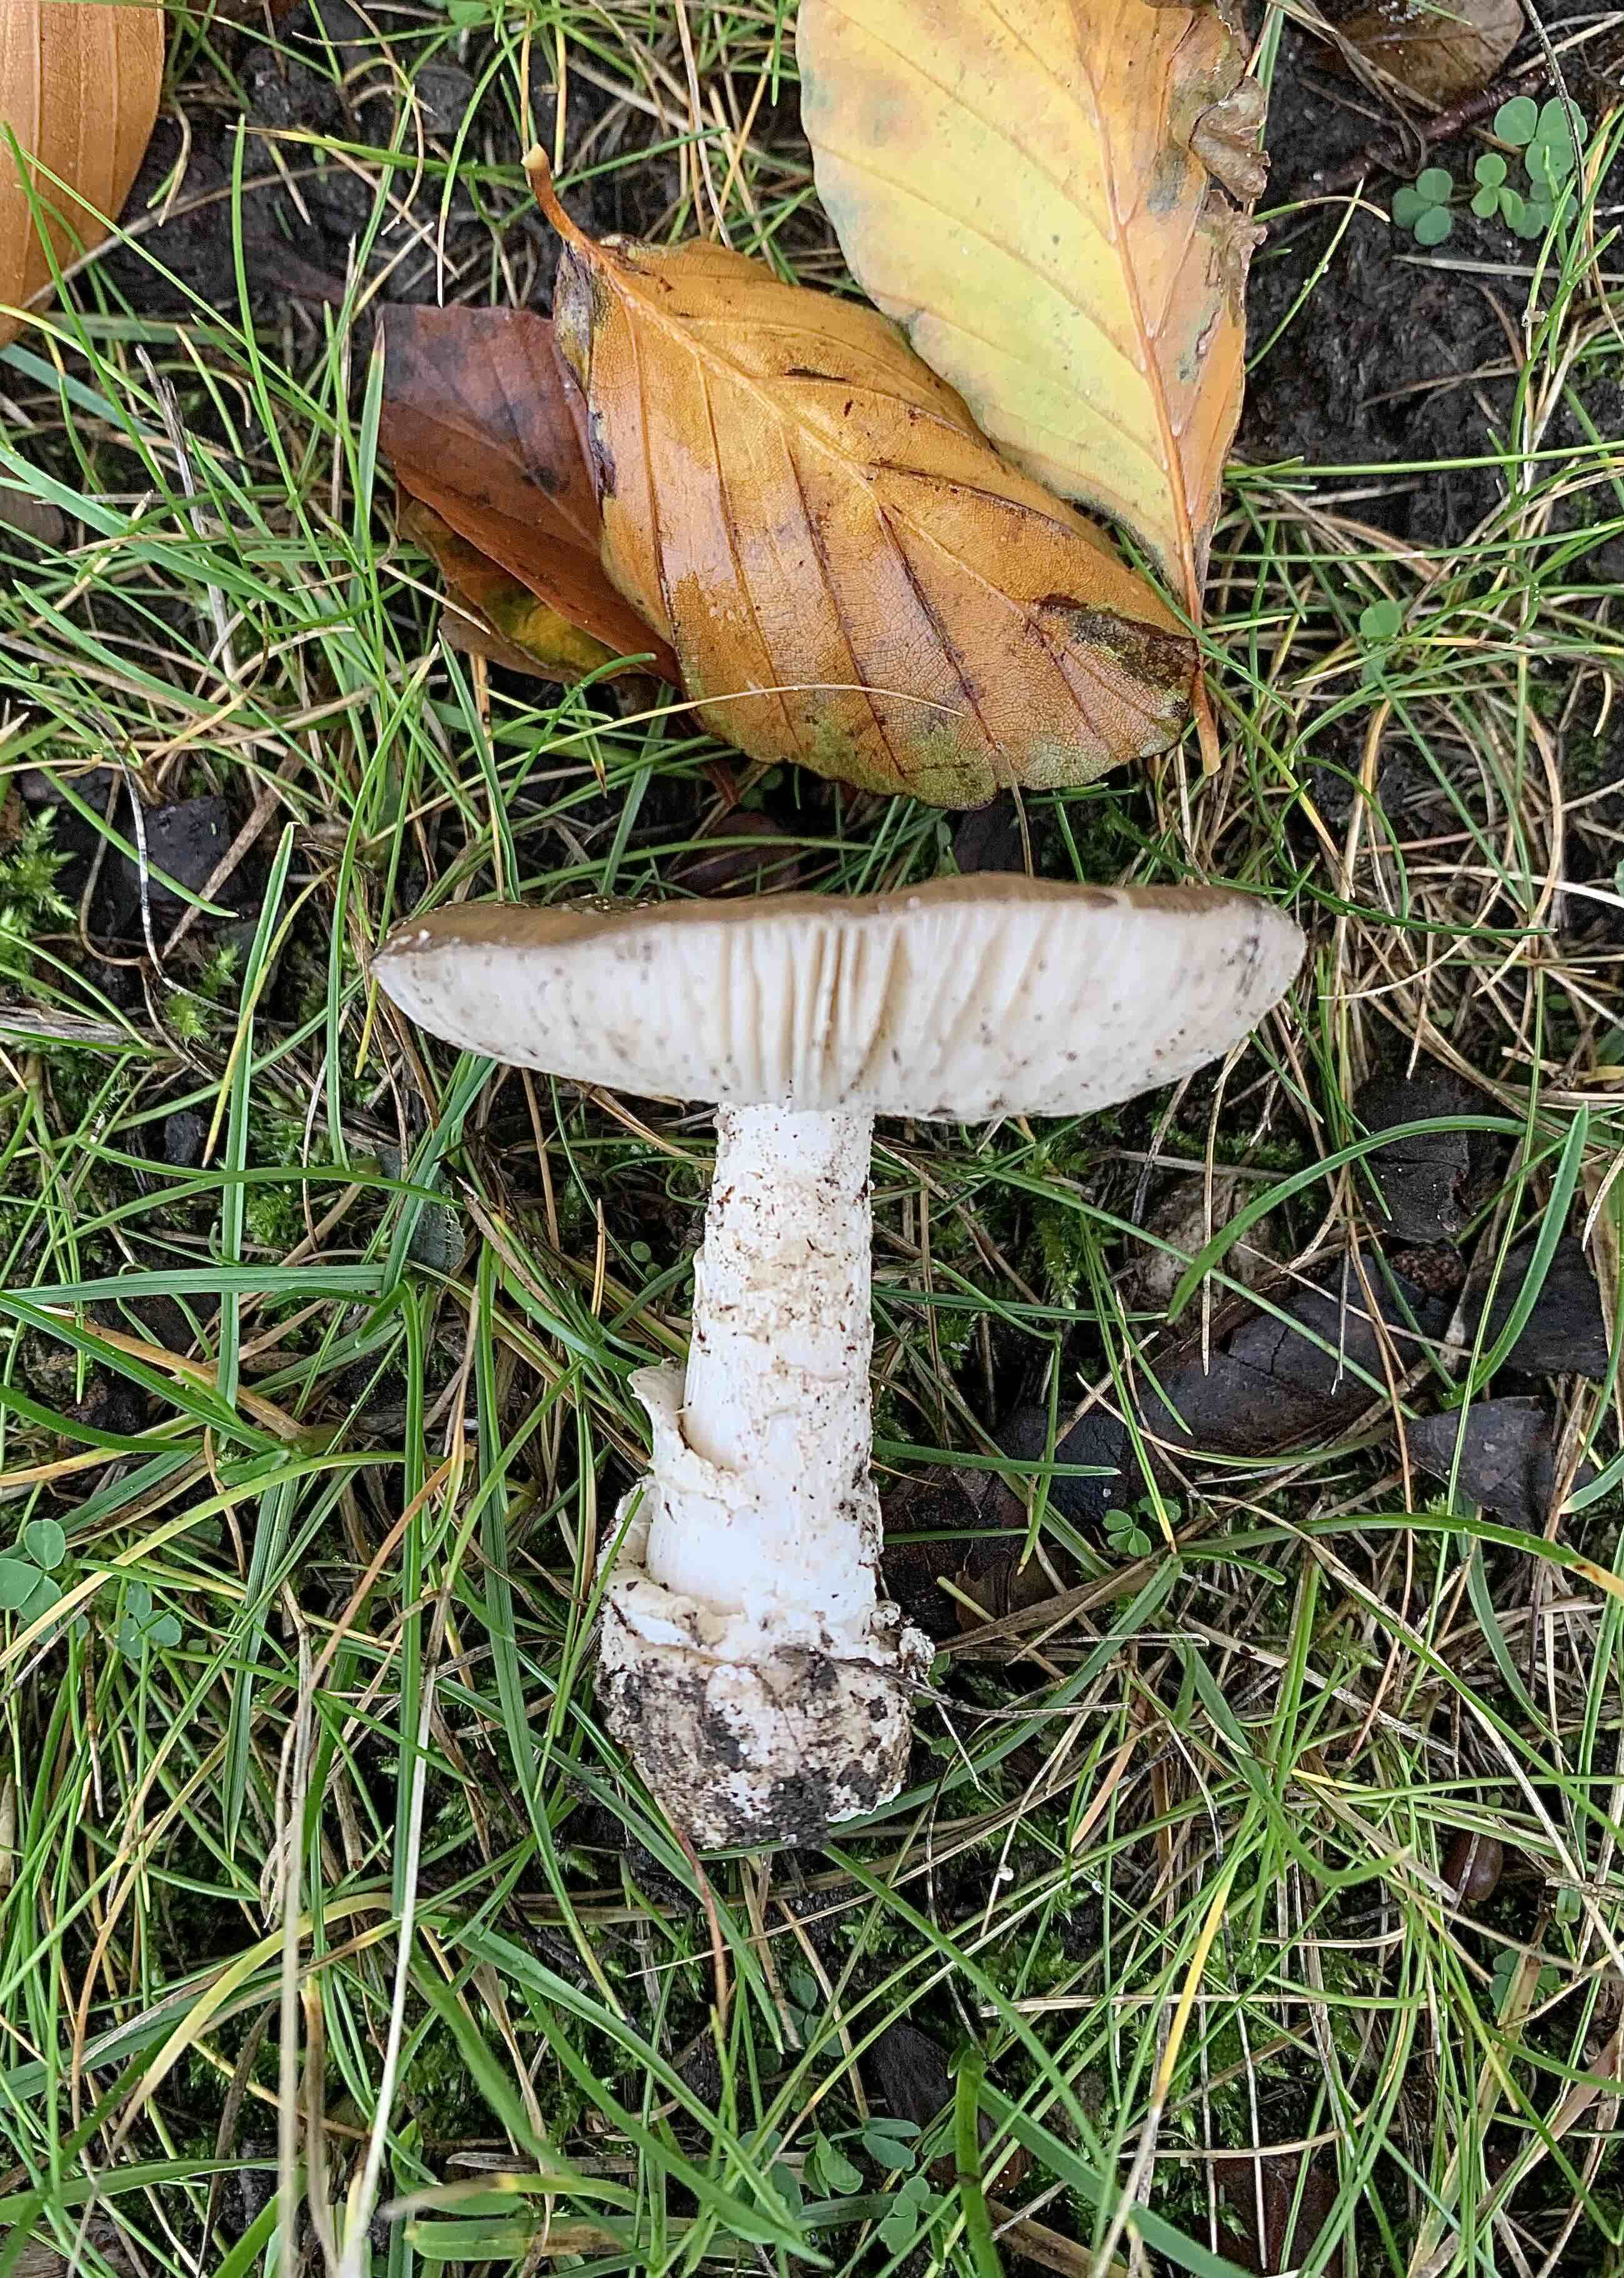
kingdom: Fungi
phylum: Basidiomycota
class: Agaricomycetes
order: Agaricales
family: Amanitaceae
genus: Amanita
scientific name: Amanita pantherina
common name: panter-fluesvamp
